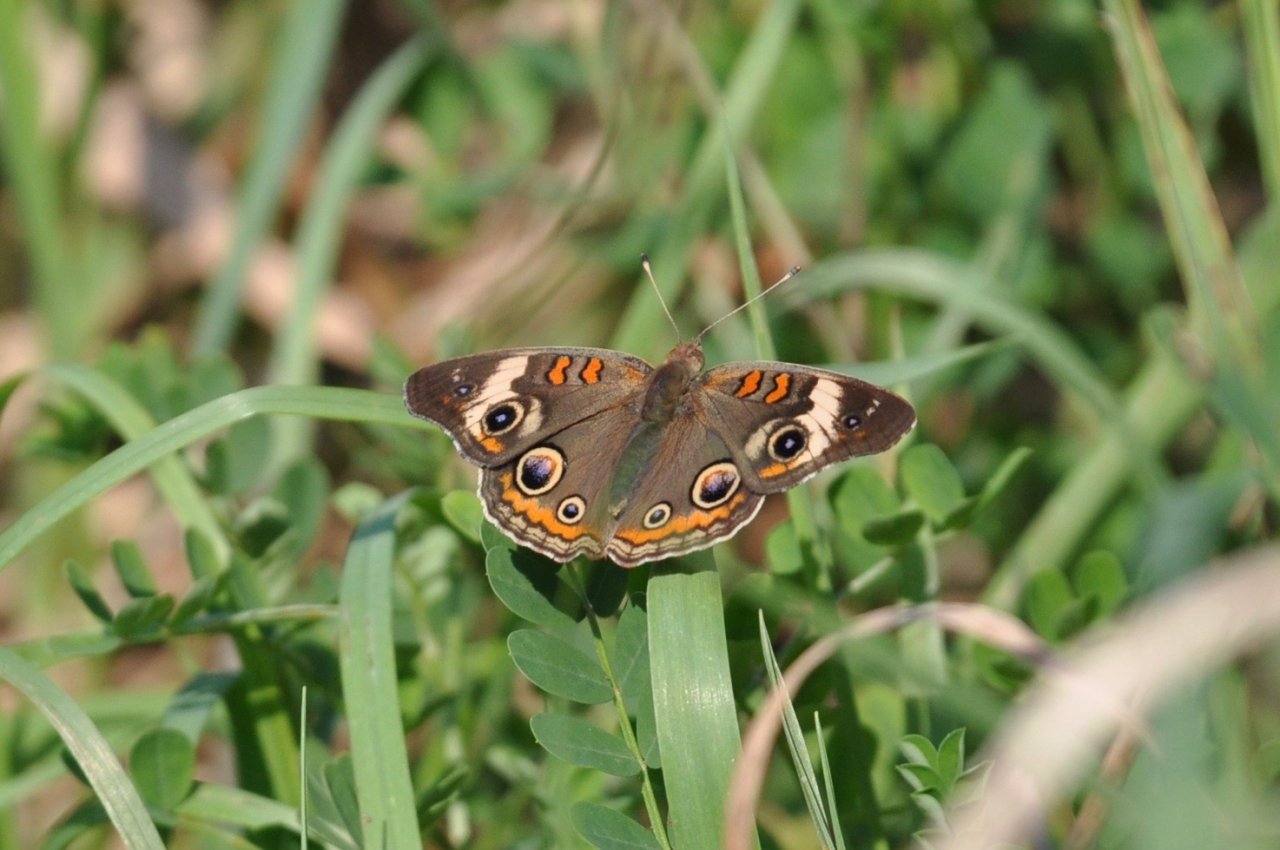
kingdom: Animalia
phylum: Arthropoda
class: Insecta
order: Lepidoptera
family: Nymphalidae
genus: Junonia
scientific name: Junonia coenia
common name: Common Buckeye
